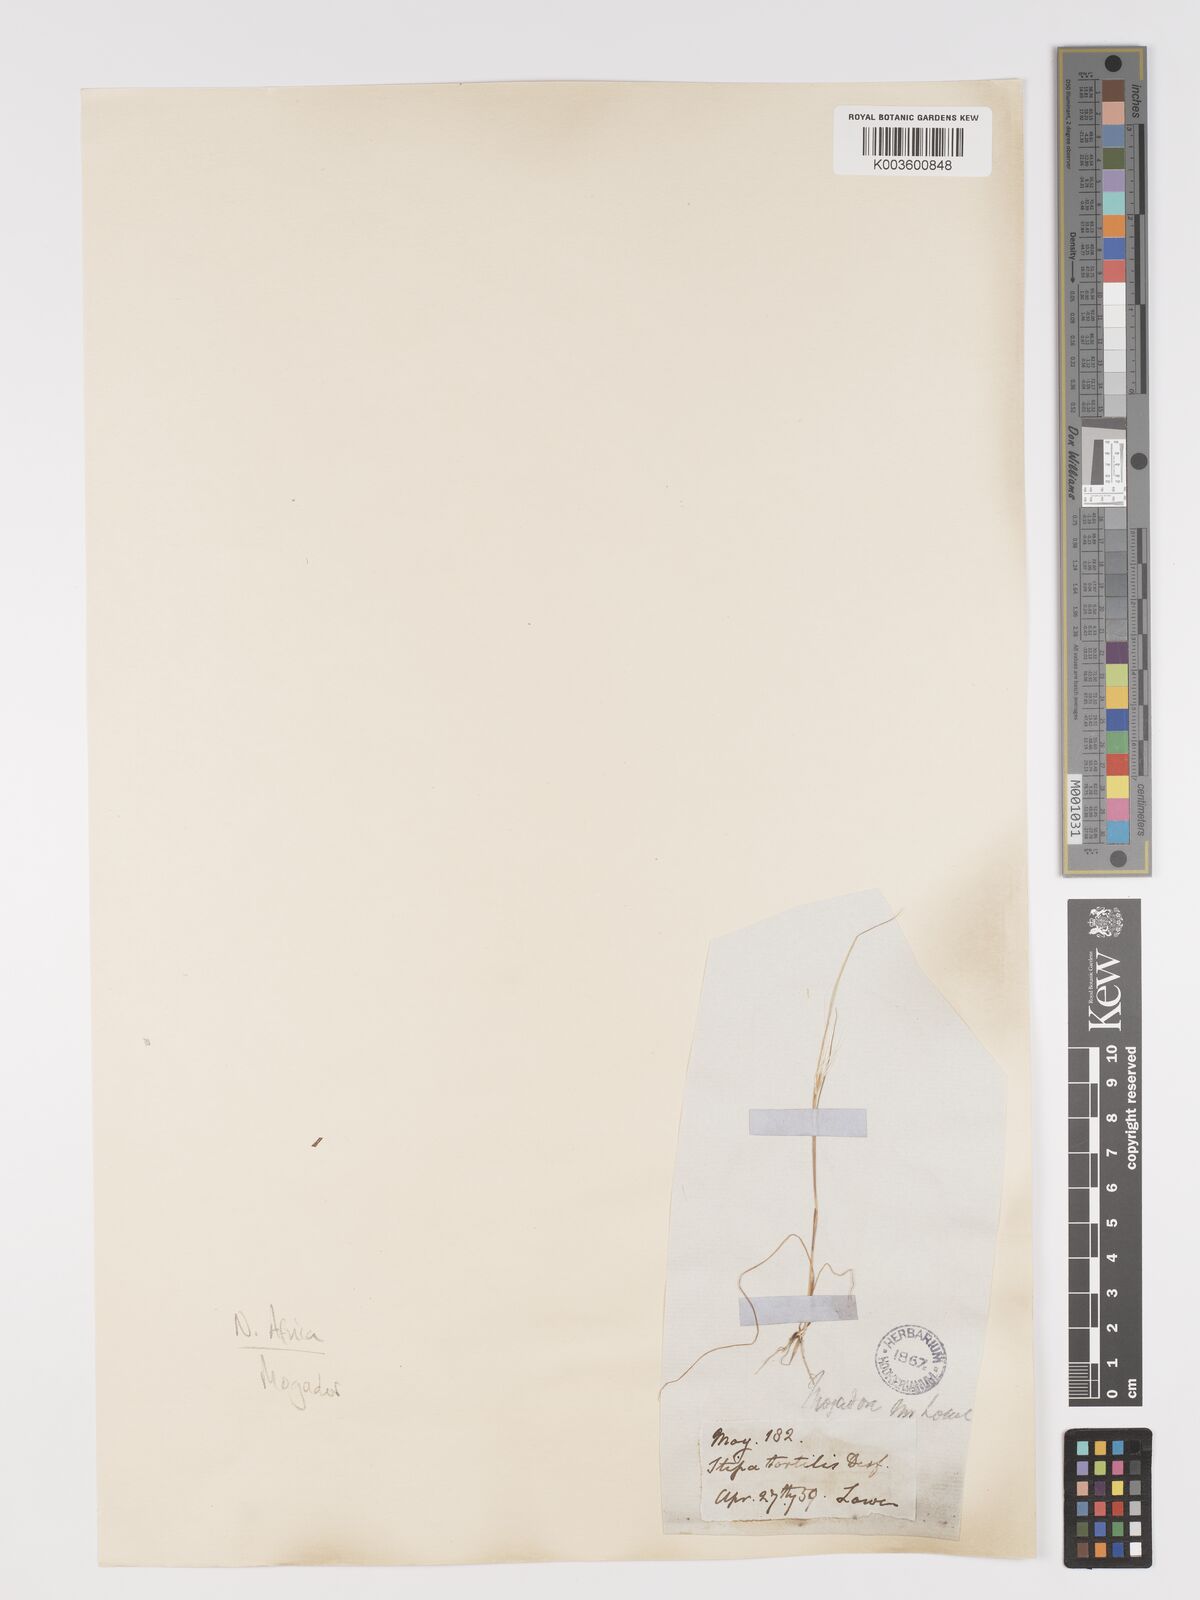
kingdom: Plantae
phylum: Tracheophyta
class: Liliopsida
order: Poales
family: Poaceae
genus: Stipellula
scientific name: Stipellula capensis
